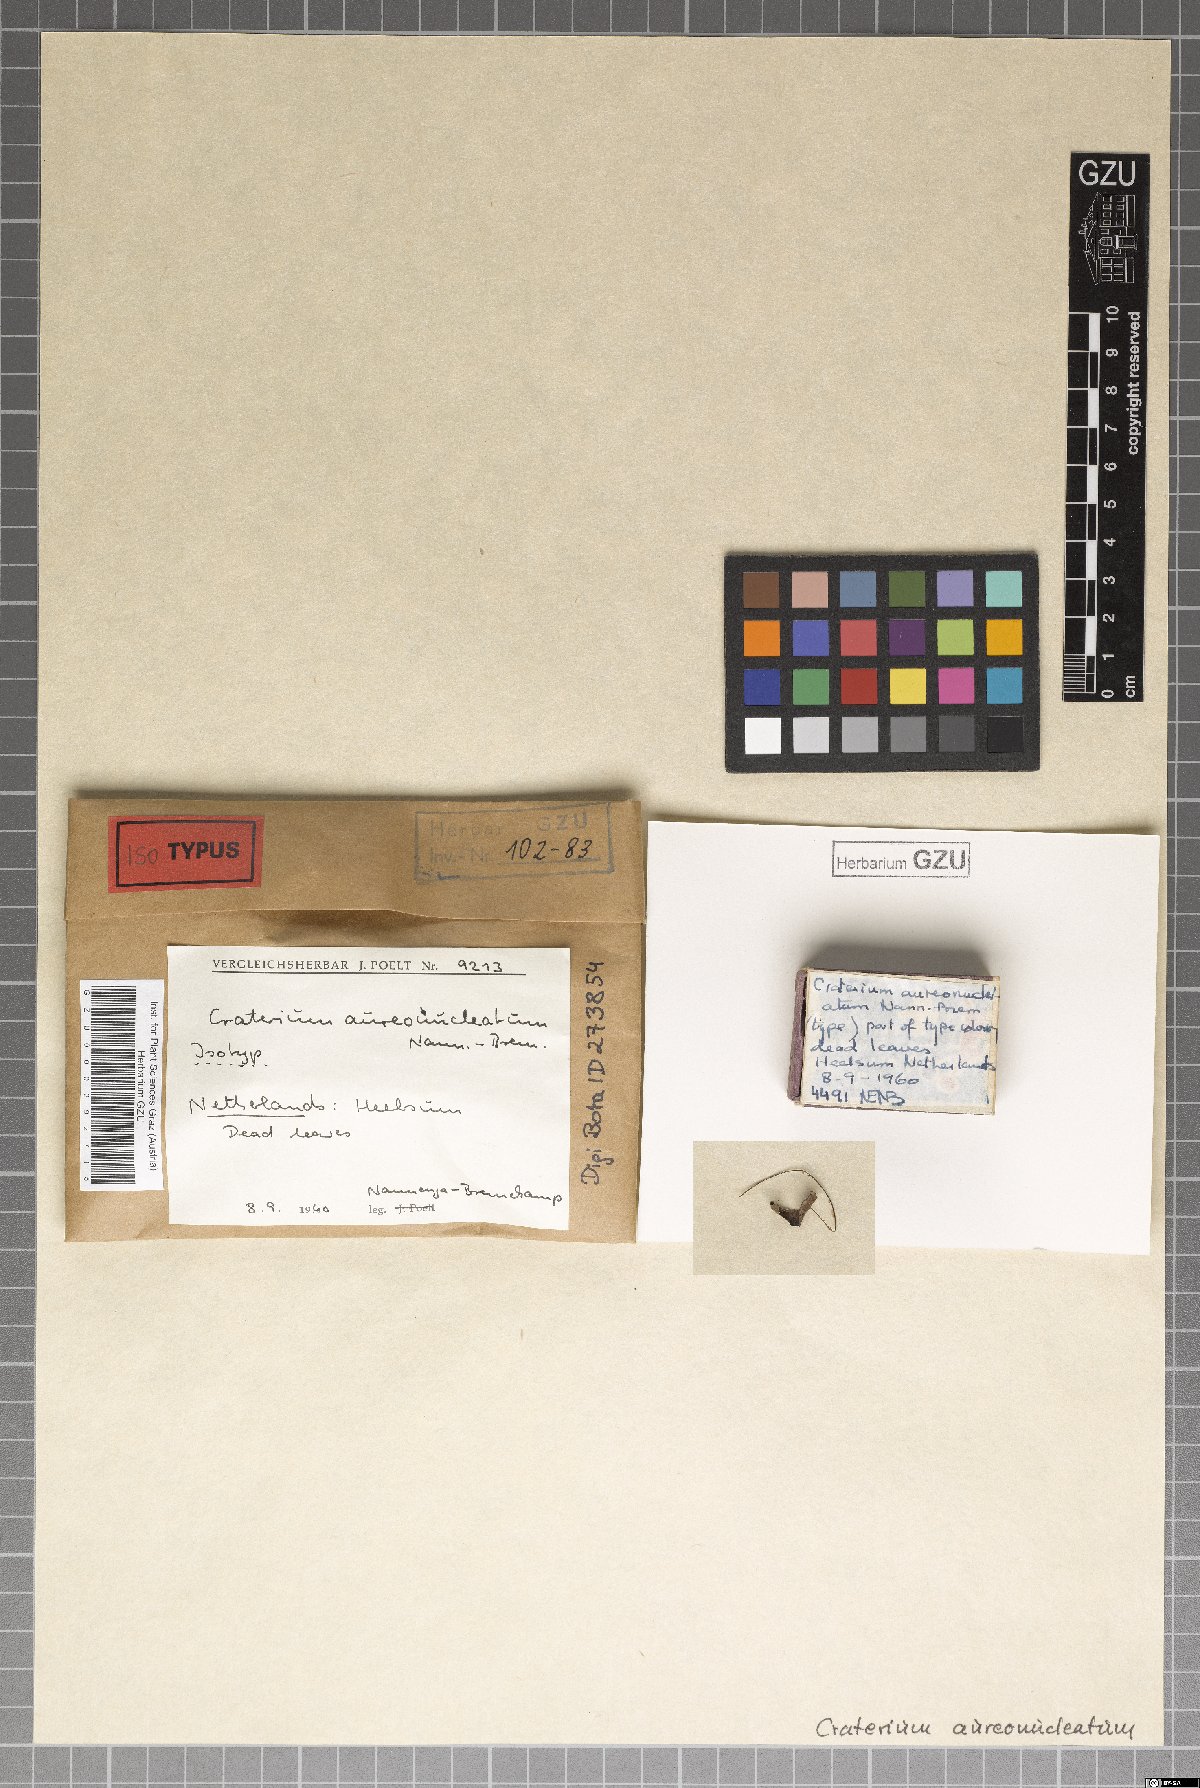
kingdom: Protozoa
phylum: Mycetozoa
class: Myxomycetes
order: Physarales
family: Physaraceae
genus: Craterium
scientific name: Craterium aureonucleatum
